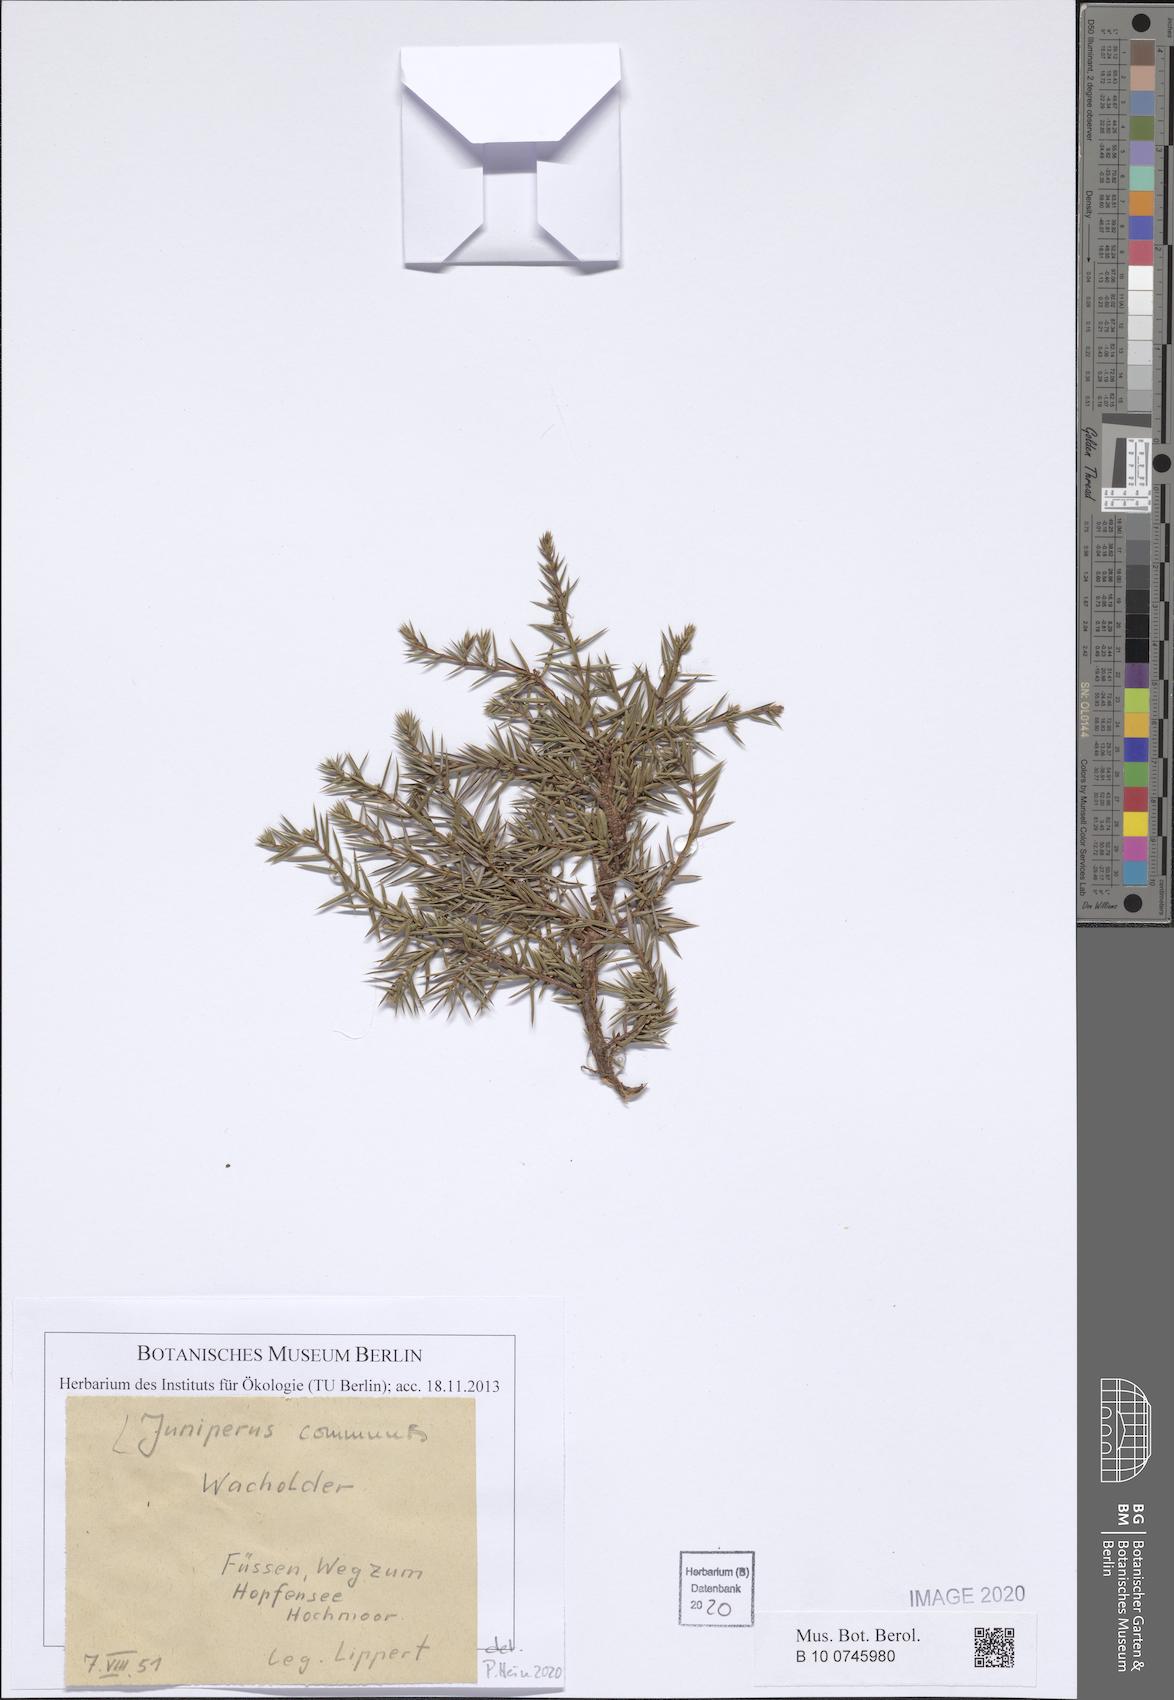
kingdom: Plantae
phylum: Tracheophyta
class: Pinopsida
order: Pinales
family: Cupressaceae
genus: Juniperus
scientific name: Juniperus communis
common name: Common juniper
